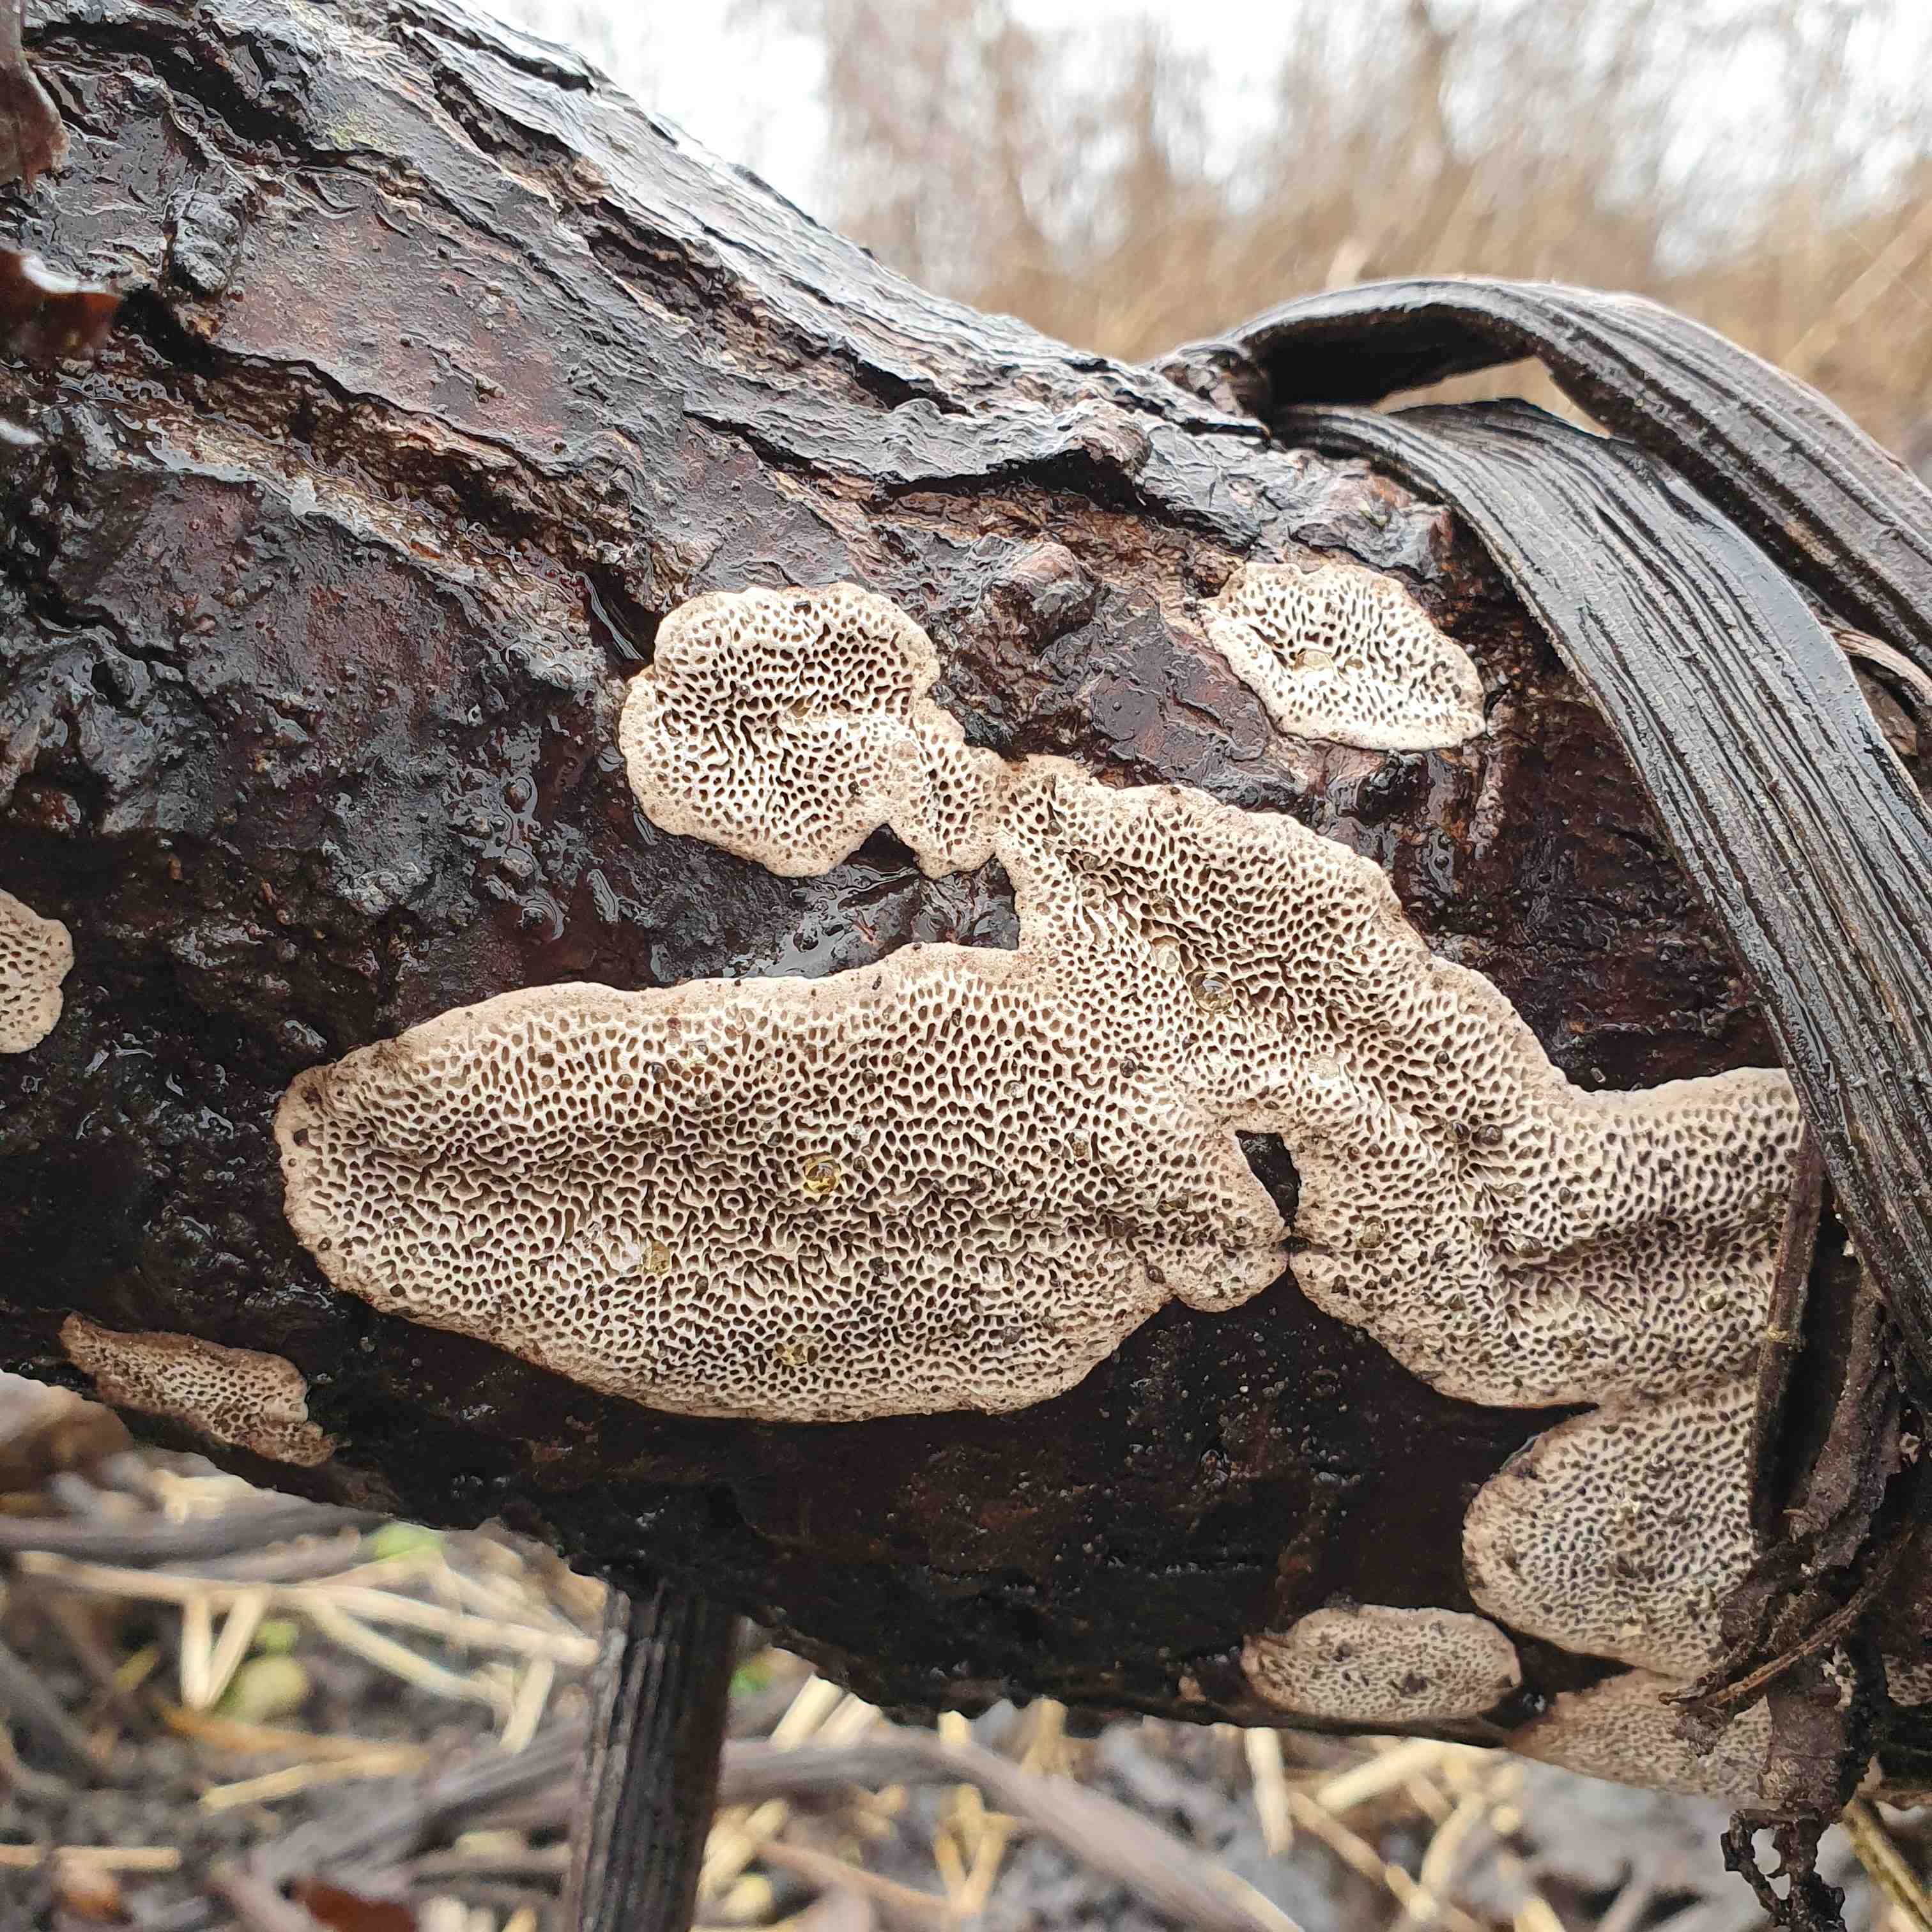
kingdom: Fungi
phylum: Basidiomycota
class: Agaricomycetes
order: Polyporales
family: Polyporaceae
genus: Podofomes
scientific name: Podofomes mollis
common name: blød begporesvamp
